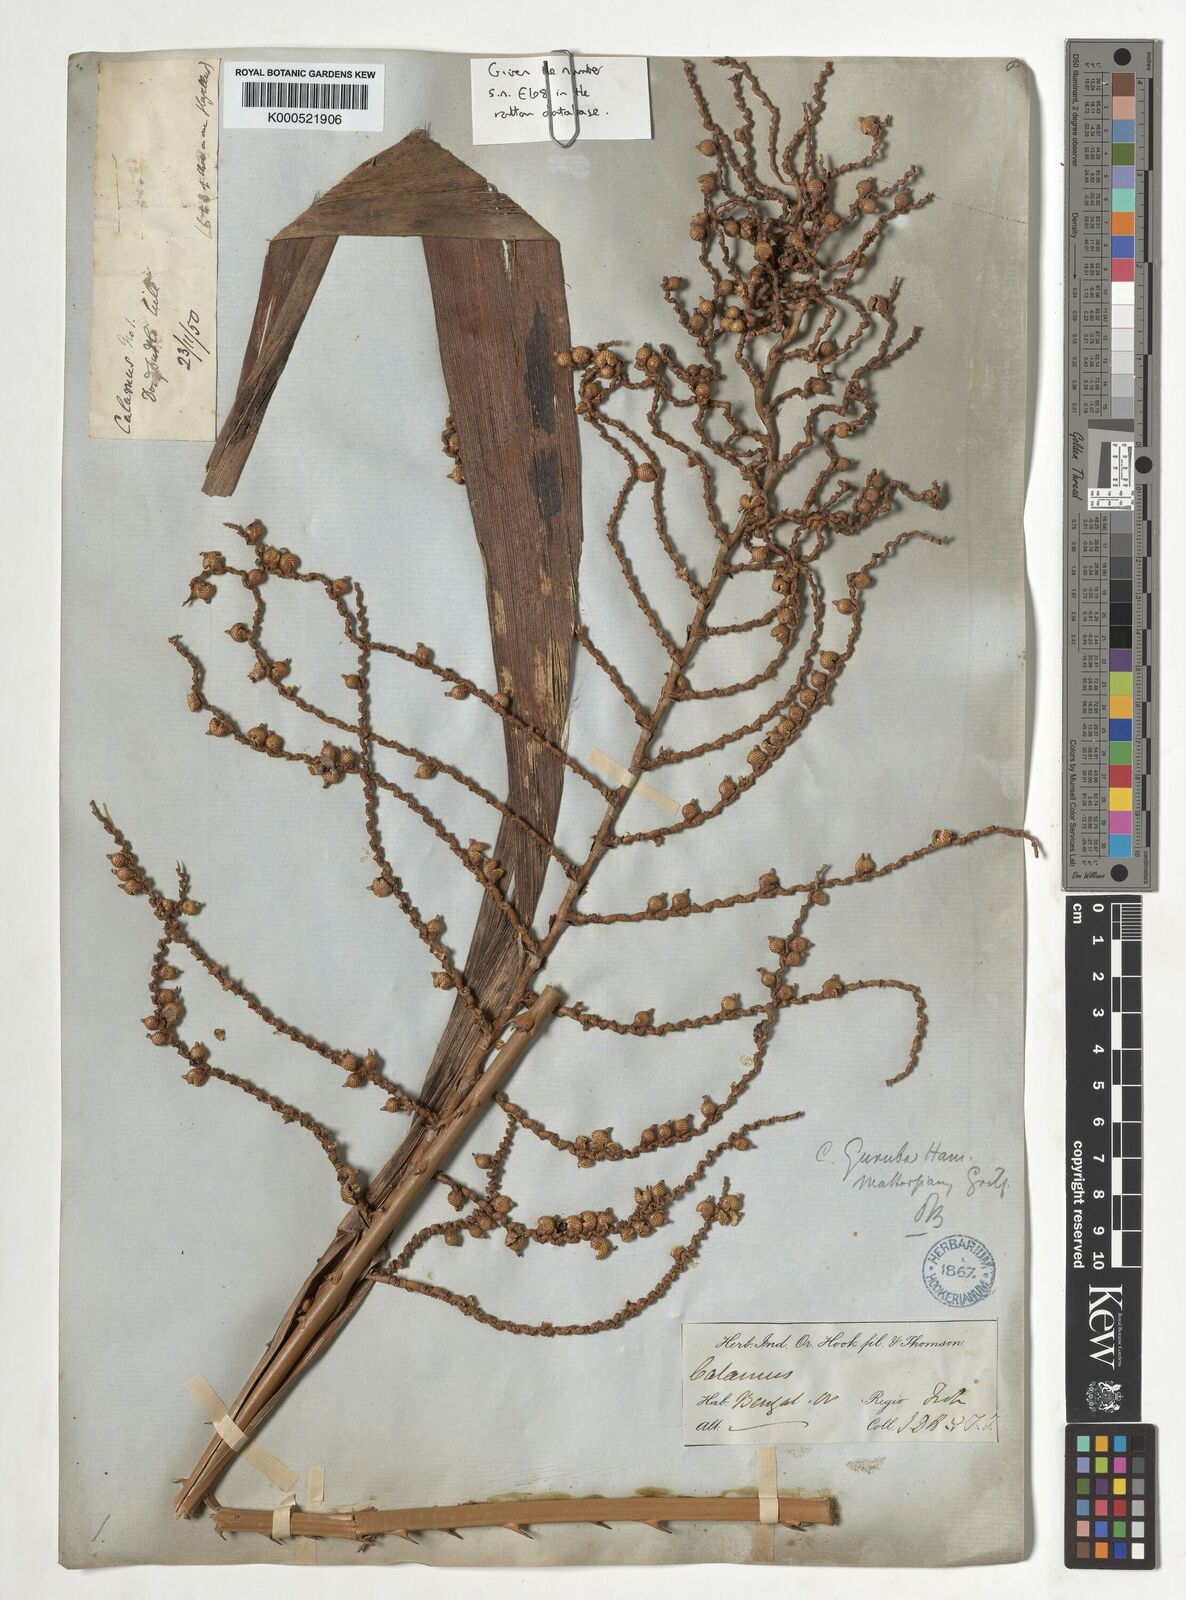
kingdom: Plantae
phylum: Tracheophyta
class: Liliopsida
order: Arecales
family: Arecaceae
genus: Calamus
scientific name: Calamus
